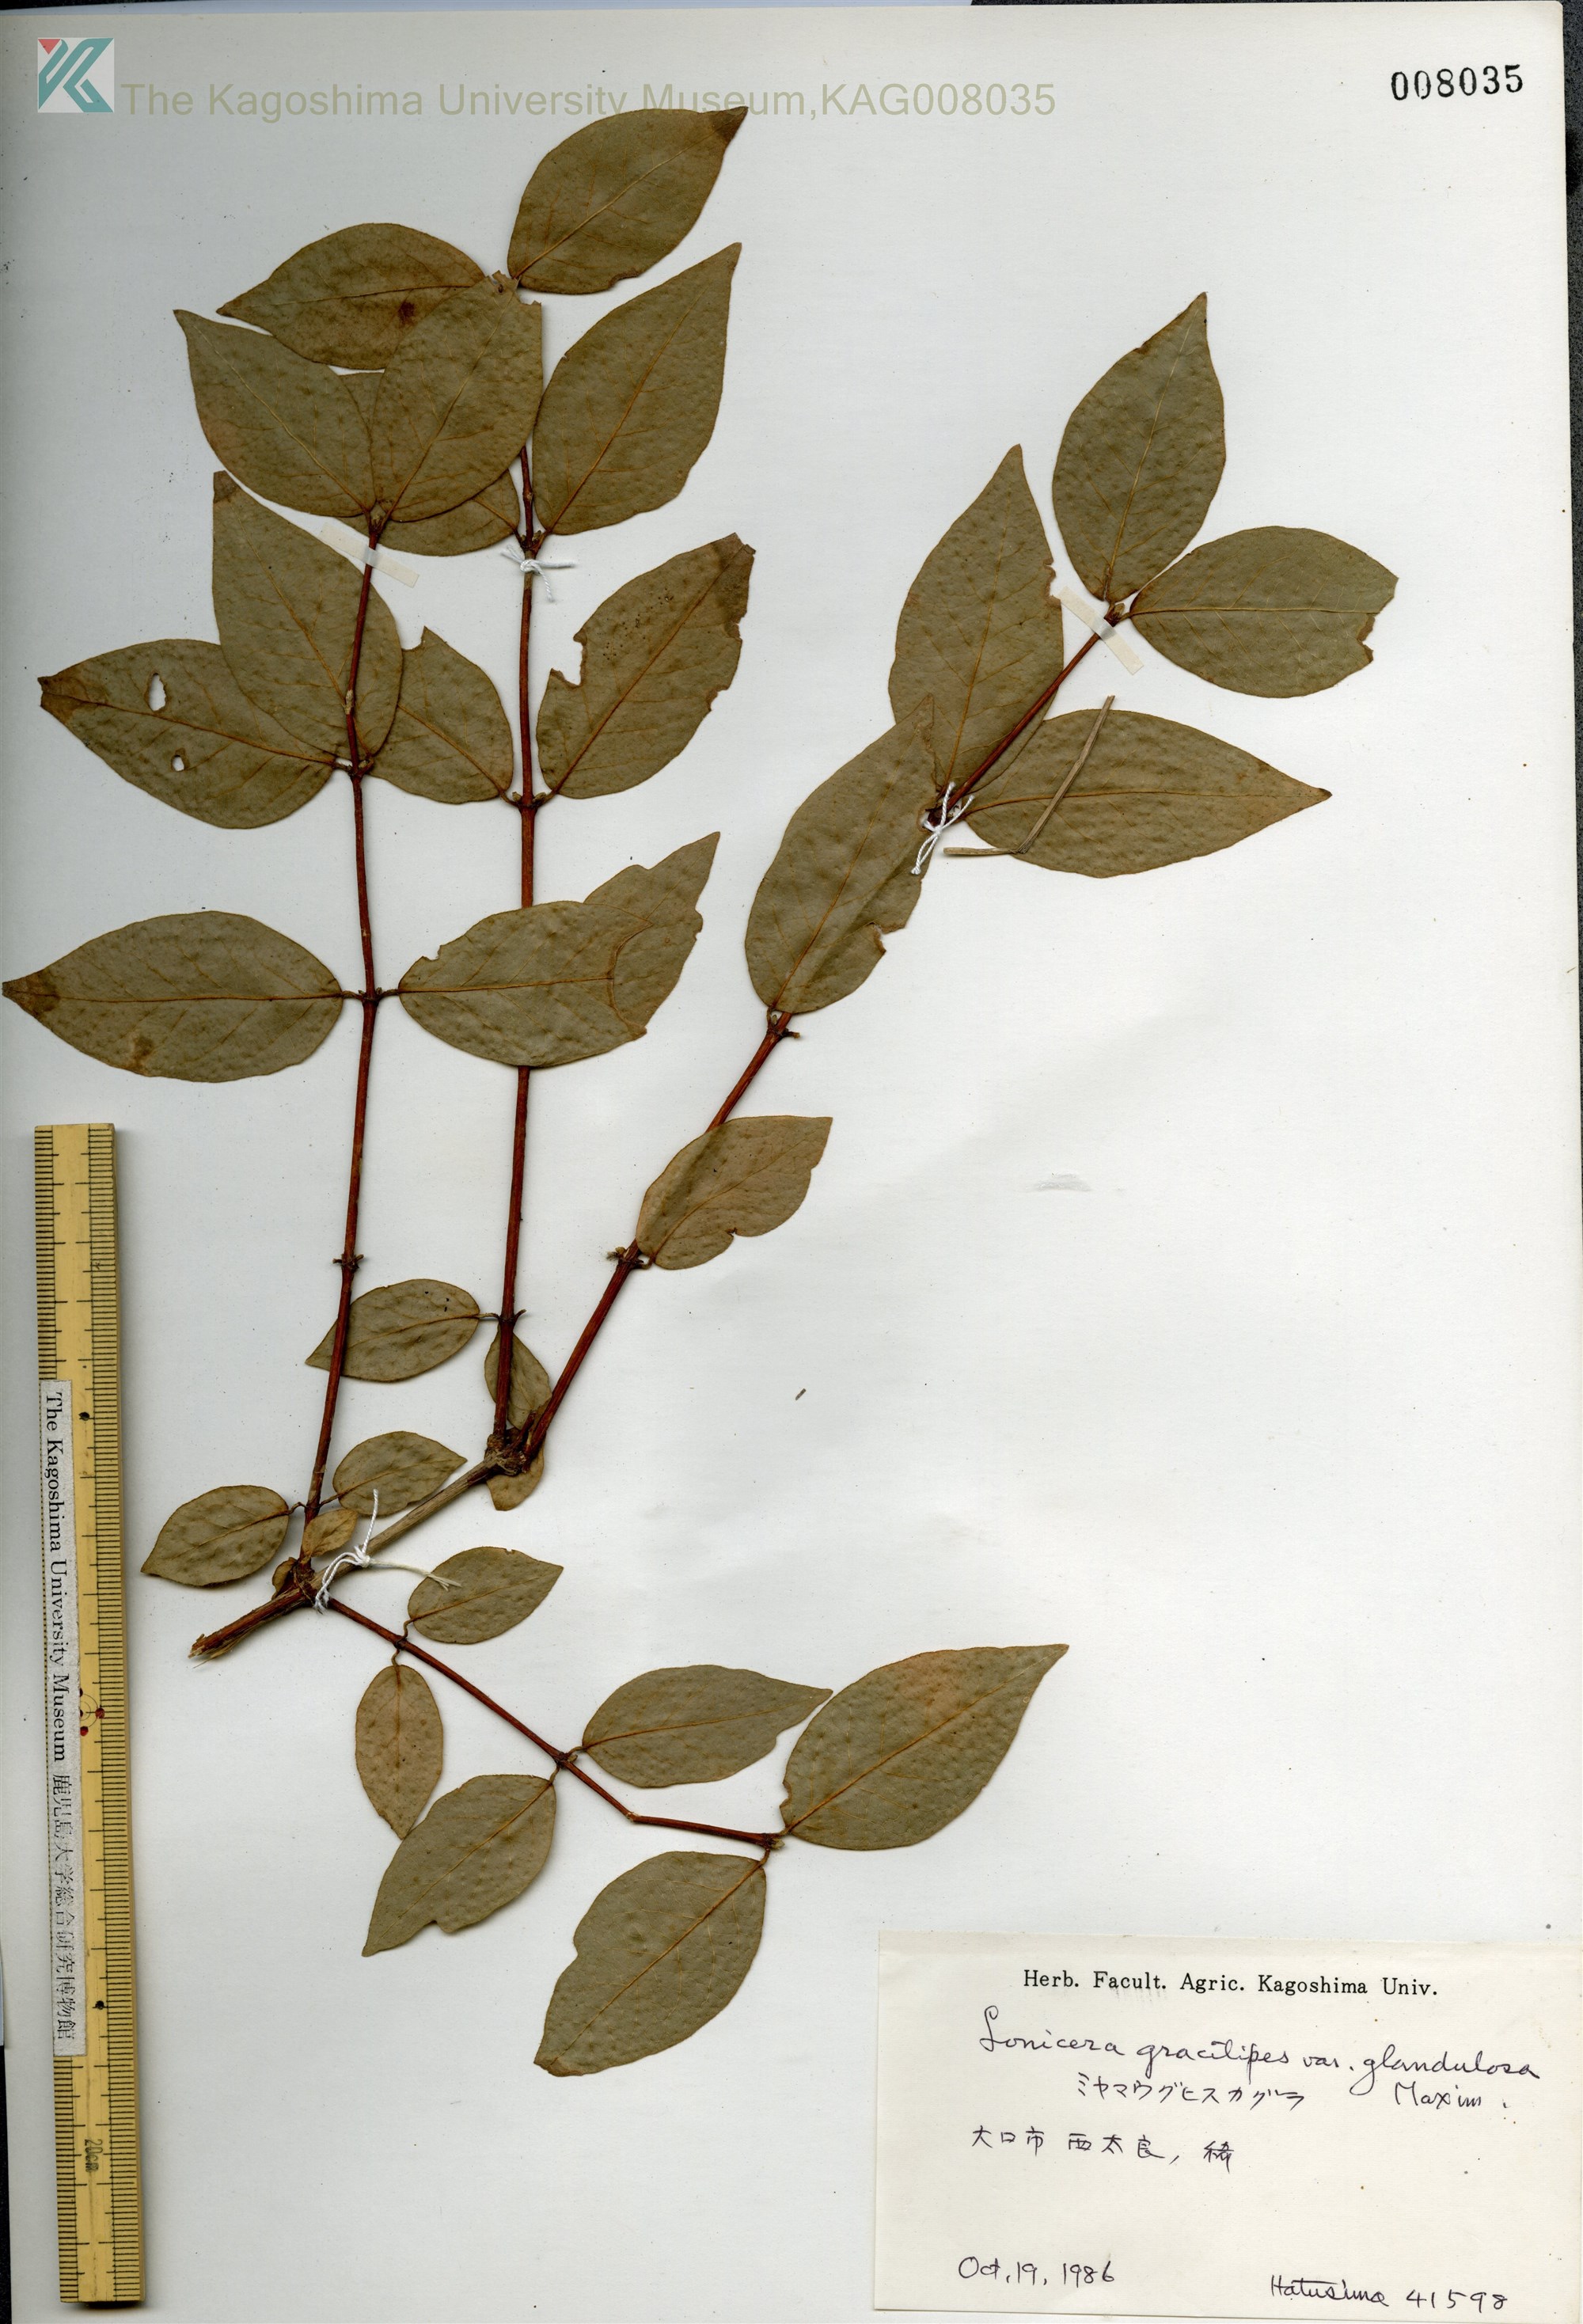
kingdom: Plantae
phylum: Tracheophyta
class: Magnoliopsida
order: Dipsacales
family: Caprifoliaceae
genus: Lonicera
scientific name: Lonicera gracilipes
